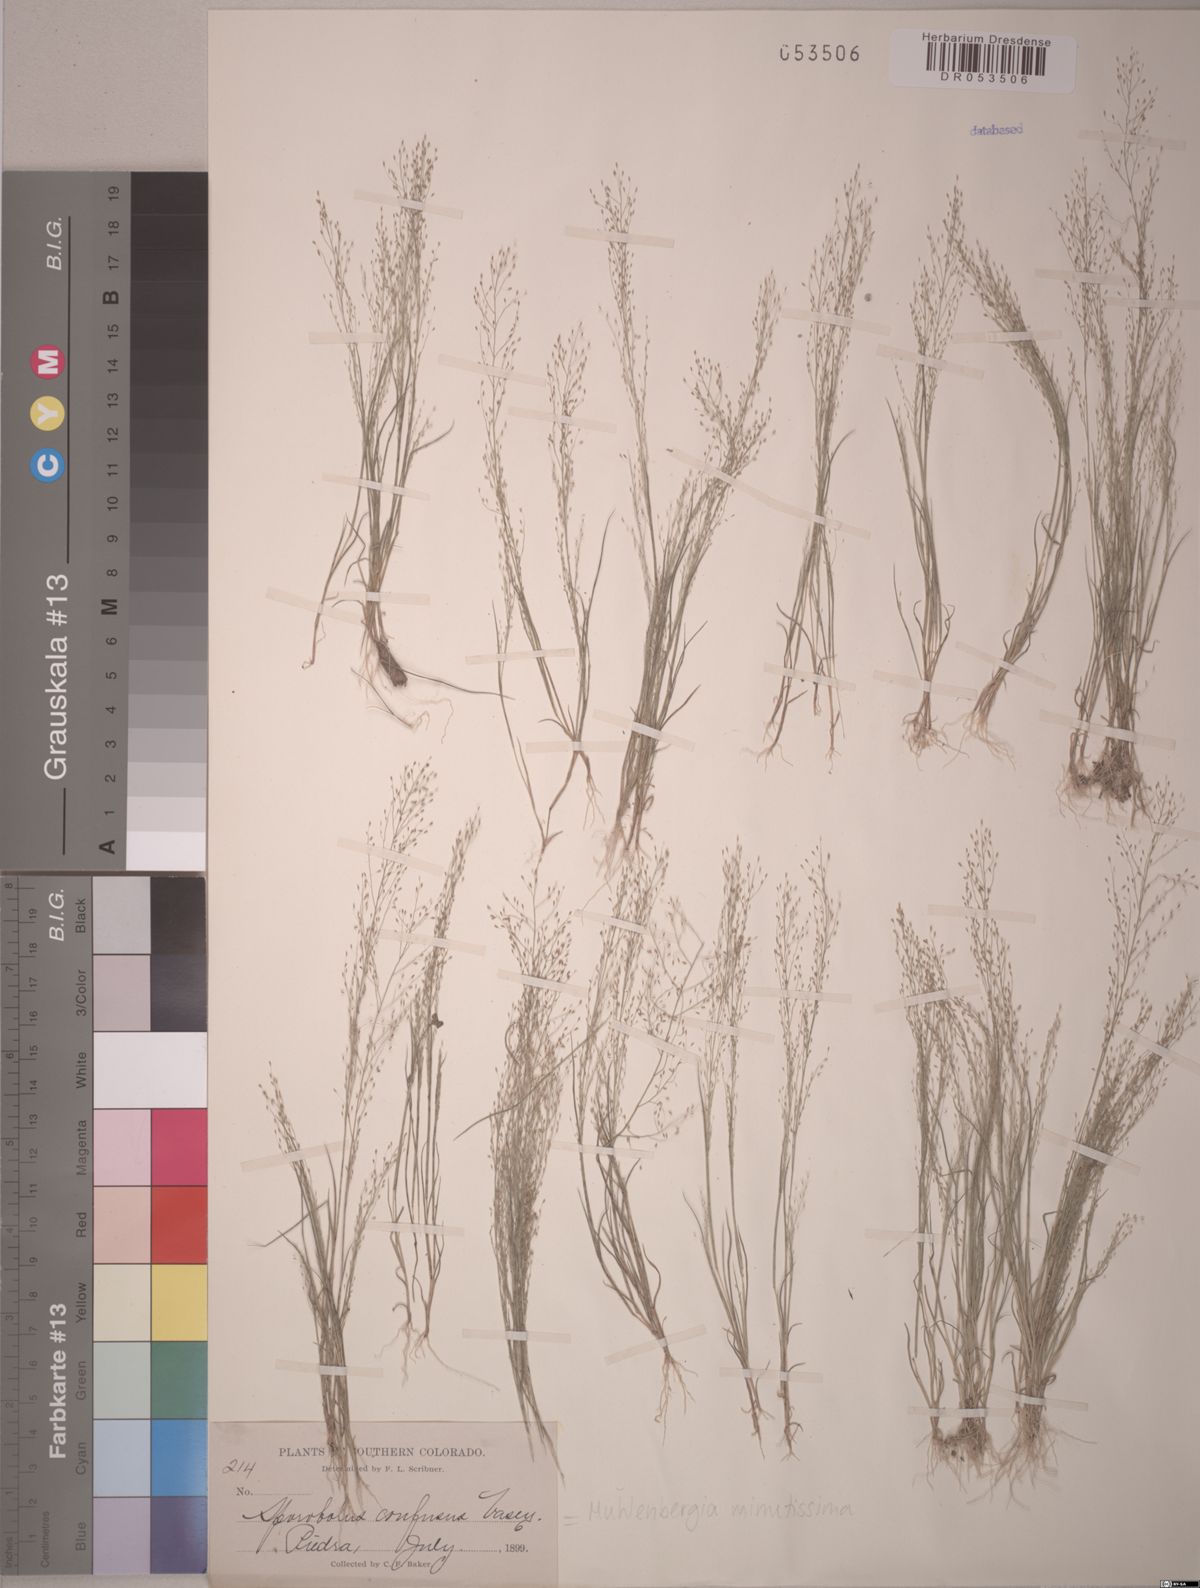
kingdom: Plantae
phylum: Tracheophyta
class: Liliopsida
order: Poales
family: Poaceae
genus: Muhlenbergia
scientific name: Muhlenbergia minutissima
